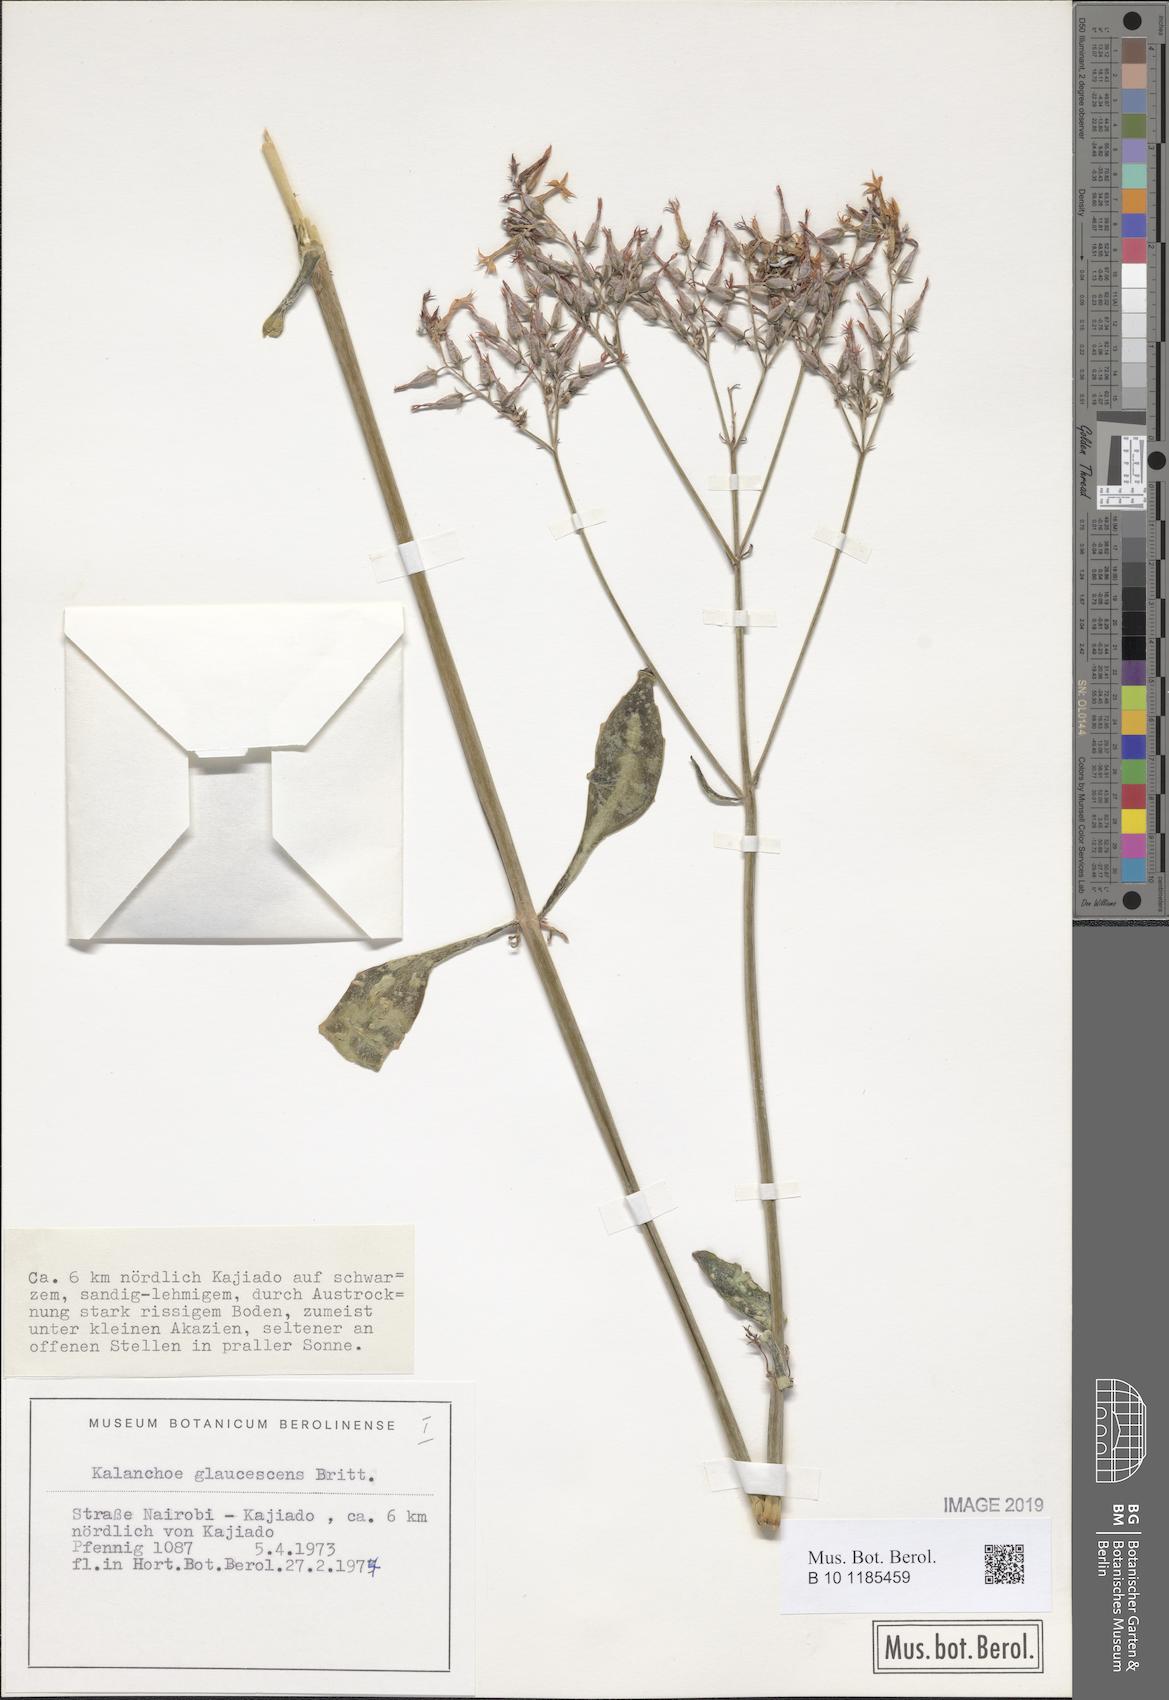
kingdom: Plantae
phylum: Tracheophyta
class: Magnoliopsida
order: Saxifragales
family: Crassulaceae
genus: Kalanchoe
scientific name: Kalanchoe glaucescens
